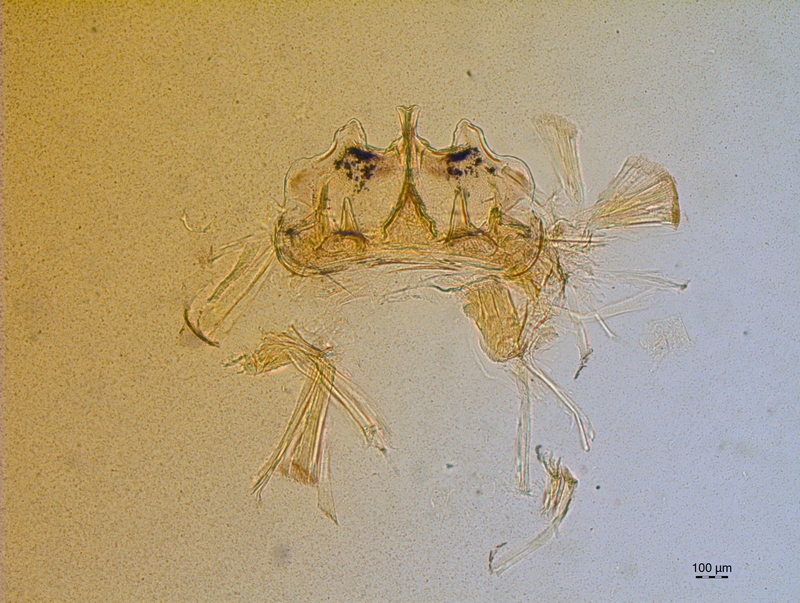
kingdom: Animalia
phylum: Arthropoda
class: Diplopoda
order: Chordeumatida
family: Craspedosomatidae
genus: Craspedosoma
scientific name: Craspedosoma rawlinsii
